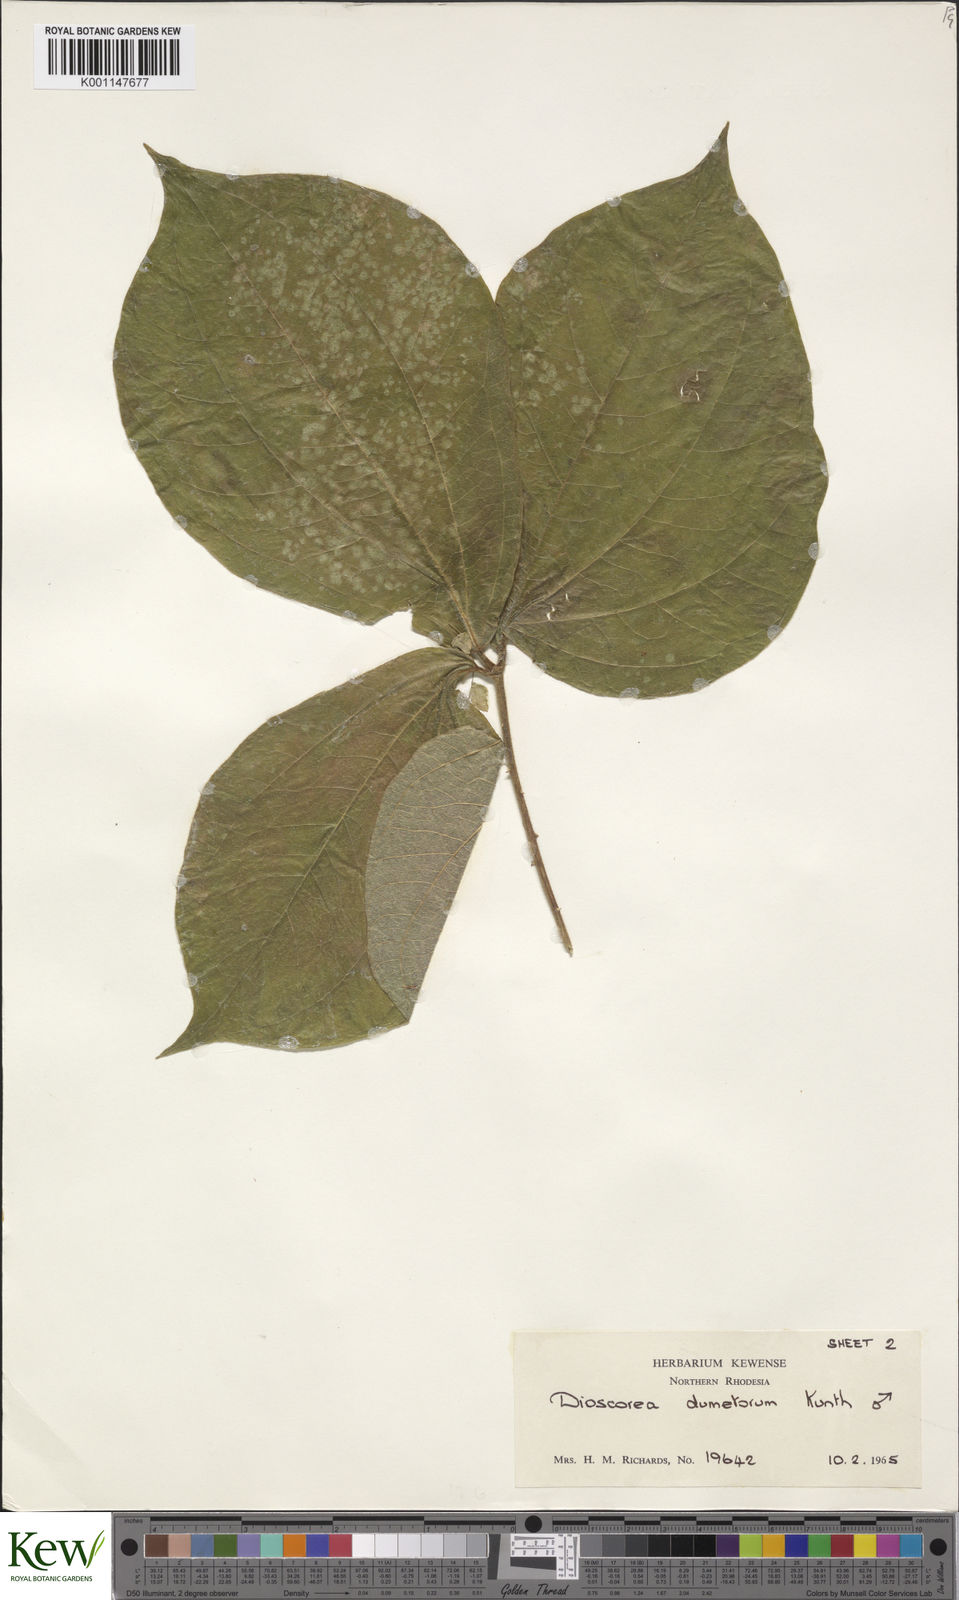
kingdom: Plantae
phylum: Tracheophyta
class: Liliopsida
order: Dioscoreales
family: Dioscoreaceae
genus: Dioscorea
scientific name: Dioscorea dumetorum
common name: African bitter yam
